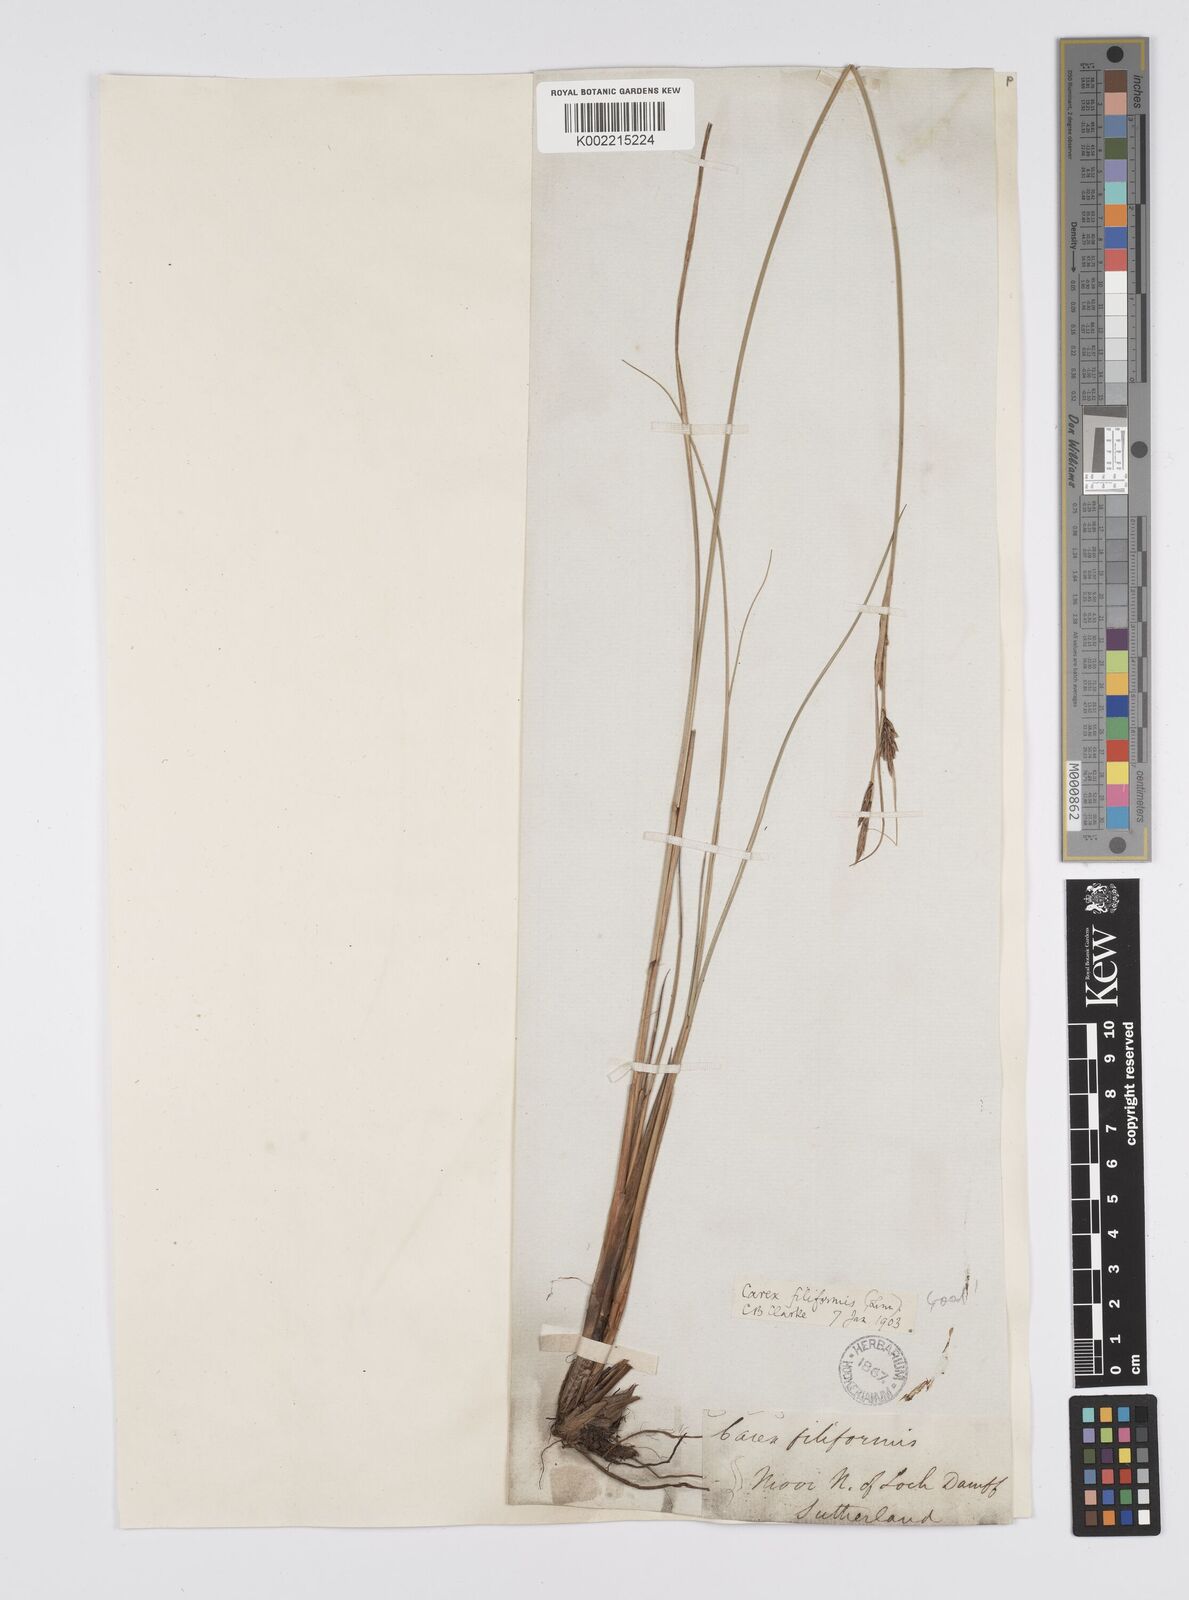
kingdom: Plantae
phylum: Tracheophyta
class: Liliopsida
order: Poales
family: Cyperaceae
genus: Carex
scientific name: Carex lasiocarpa
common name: Slender sedge
